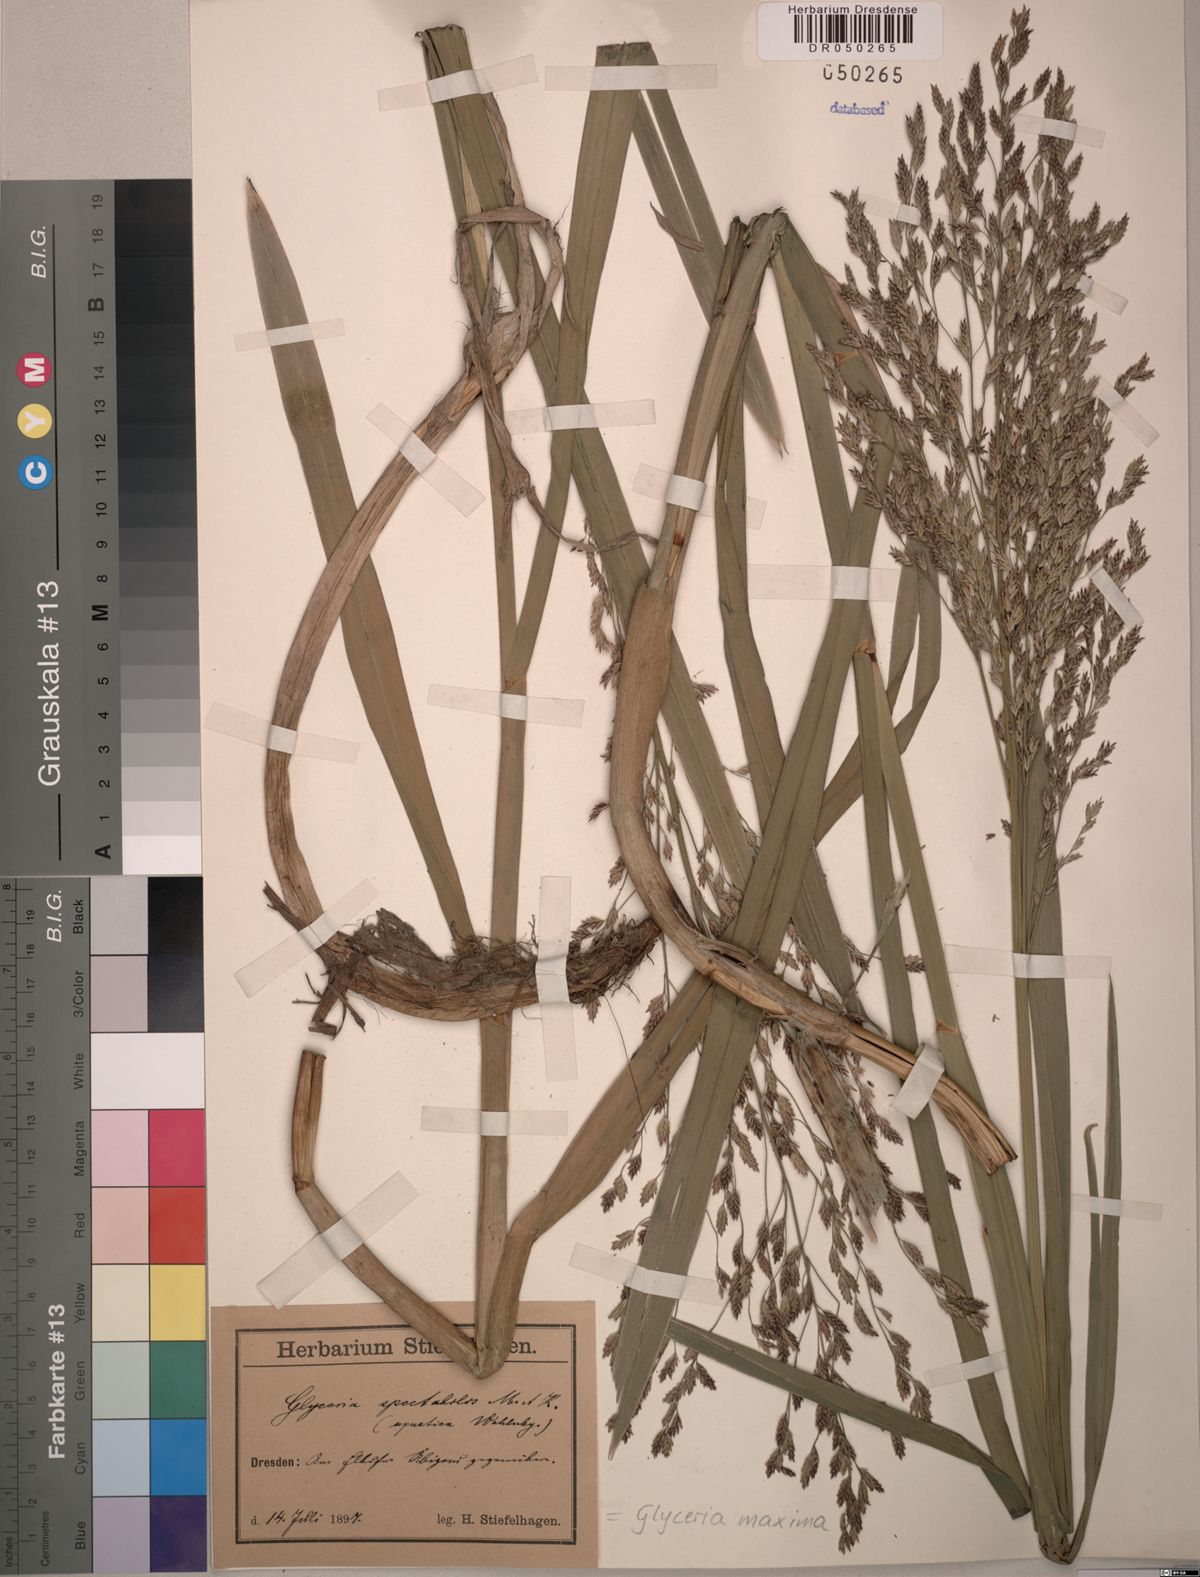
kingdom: Plantae
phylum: Tracheophyta
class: Liliopsida
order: Poales
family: Poaceae
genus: Glyceria
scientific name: Glyceria maxima
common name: Reed mannagrass
